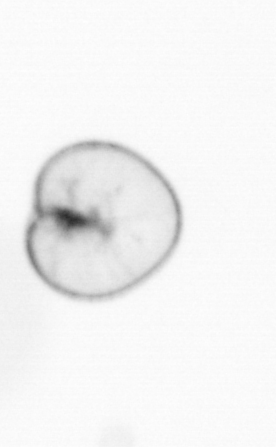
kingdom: Chromista
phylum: Myzozoa
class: Dinophyceae
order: Noctilucales
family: Noctilucaceae
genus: Noctiluca
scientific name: Noctiluca scintillans
